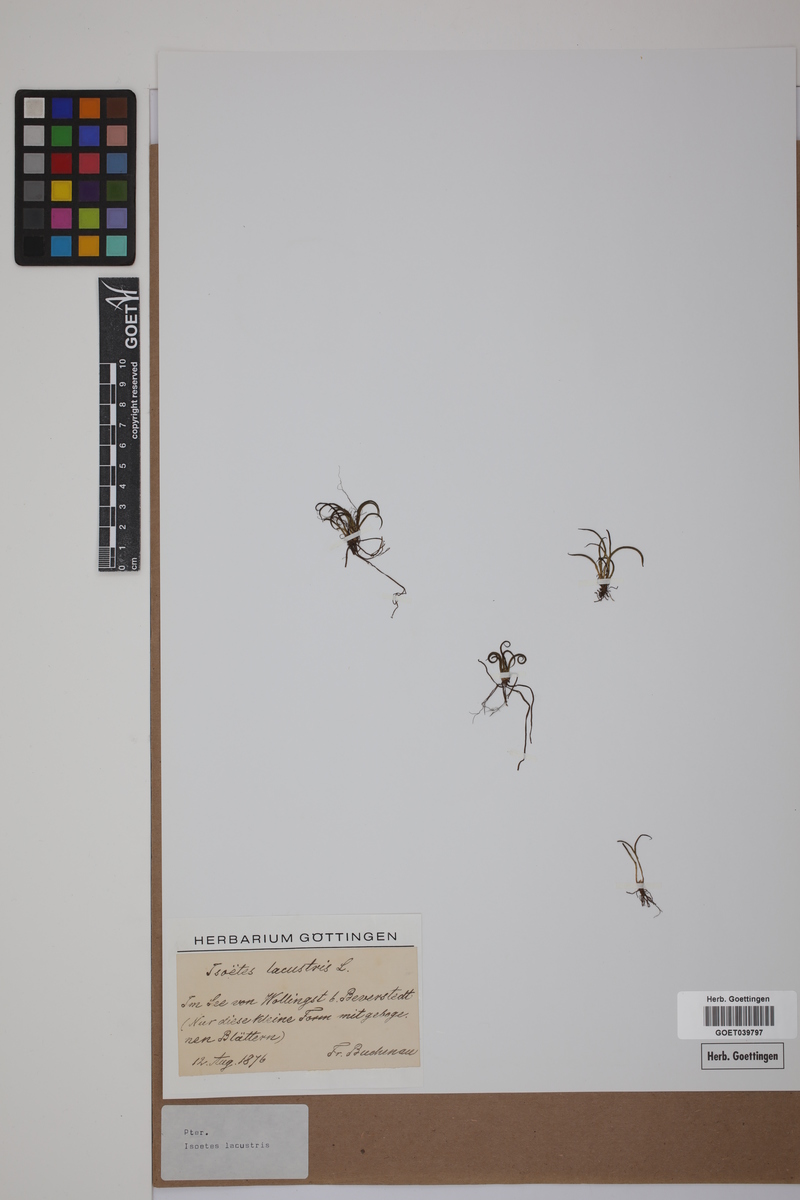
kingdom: Plantae
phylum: Tracheophyta
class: Lycopodiopsida
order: Isoetales
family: Isoetaceae
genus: Isoetes
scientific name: Isoetes lacustris
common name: Common quillwort
